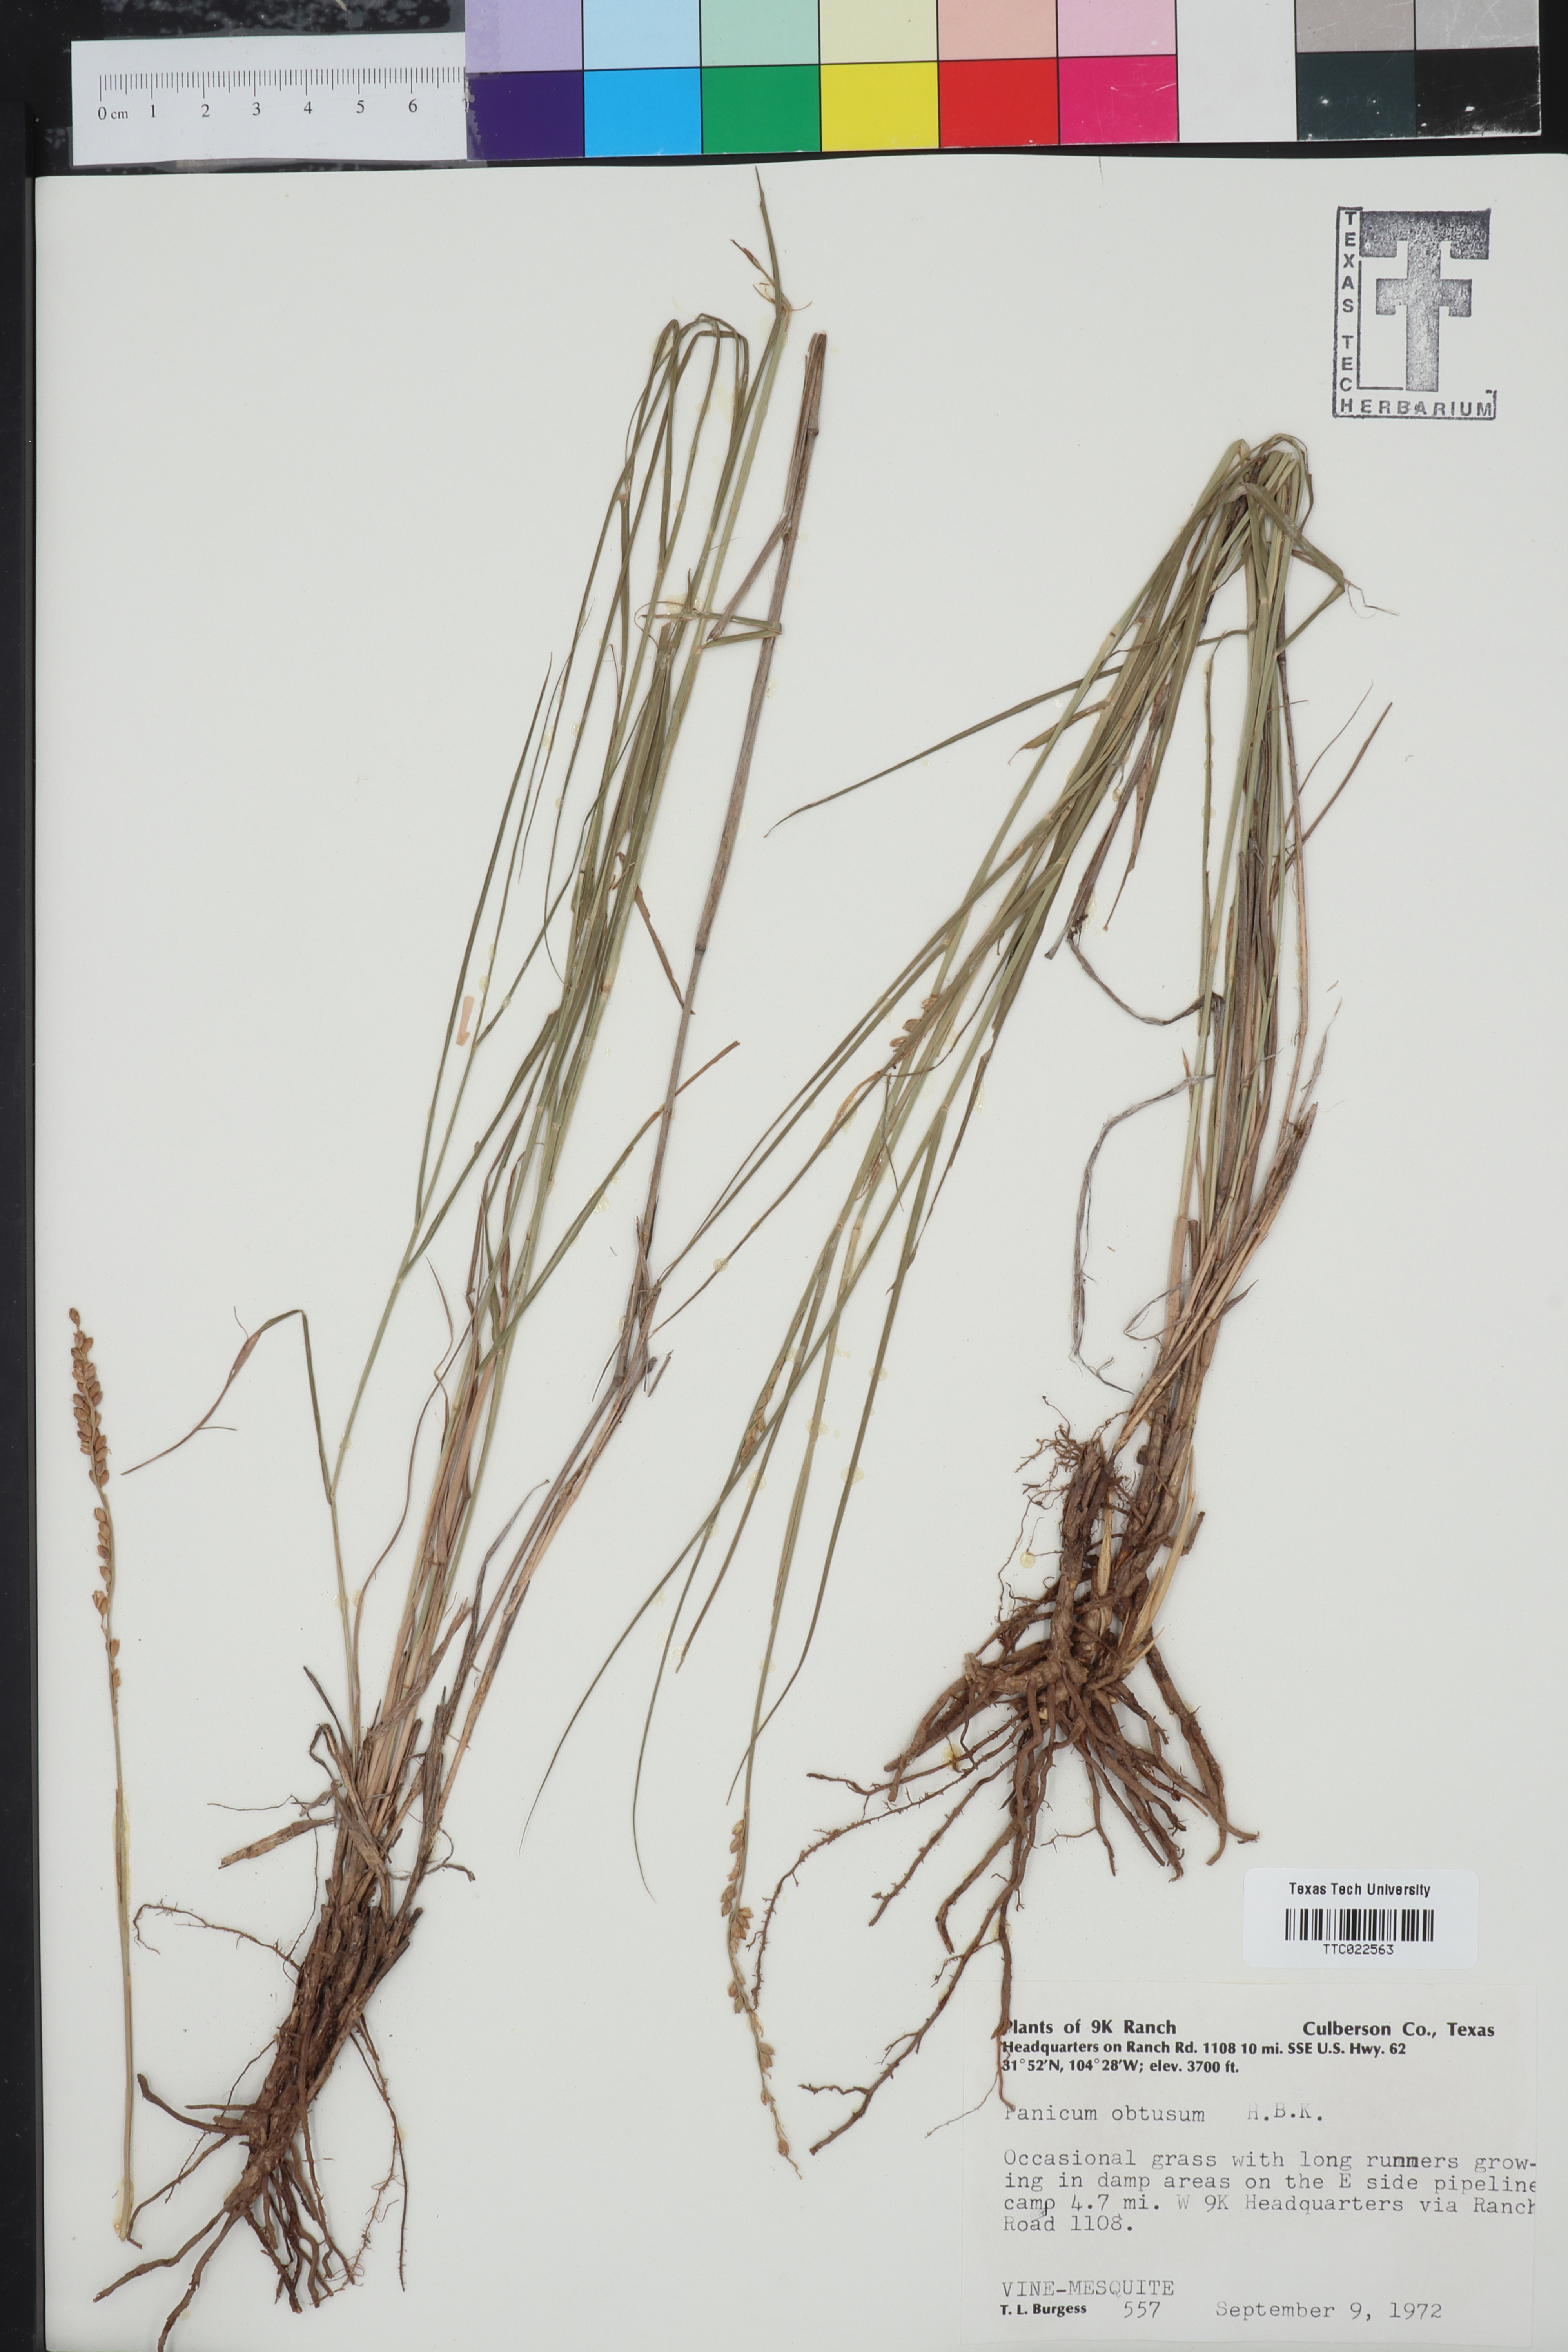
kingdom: Plantae
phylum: Tracheophyta
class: Liliopsida
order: Poales
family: Poaceae
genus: Hopia
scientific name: Hopia obtusa
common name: Vine-mesquite
